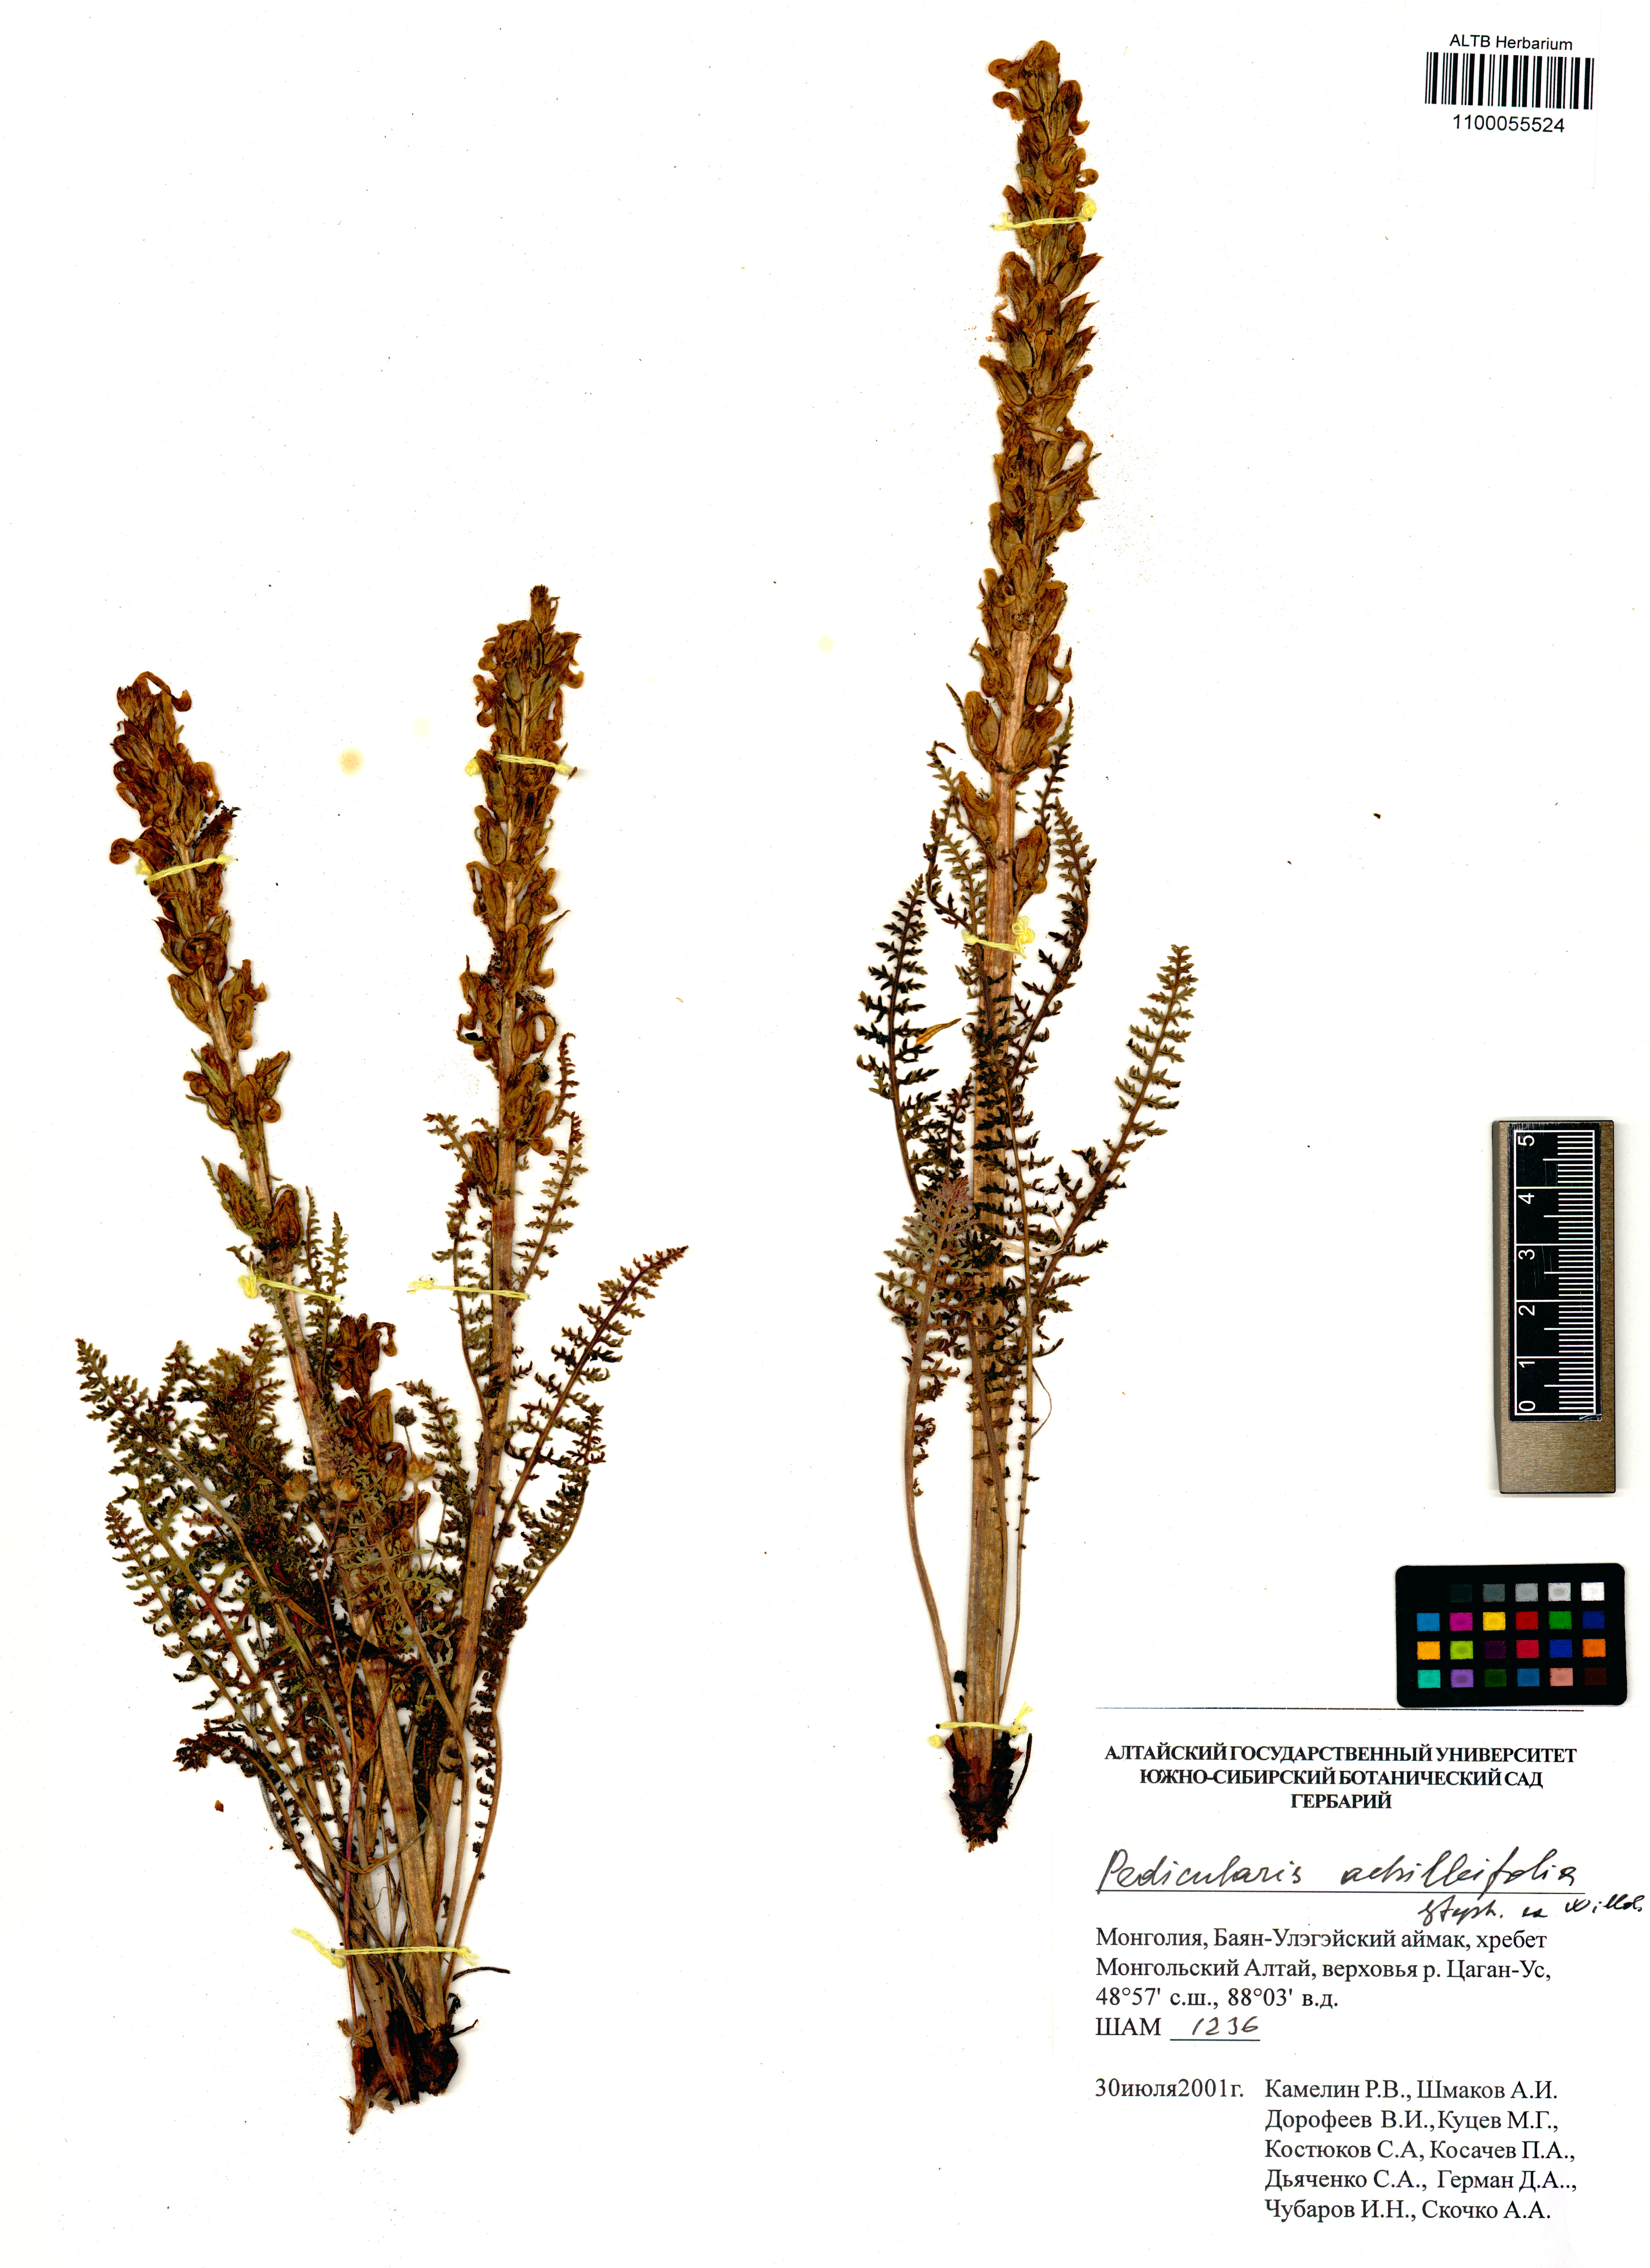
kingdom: Plantae
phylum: Tracheophyta
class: Magnoliopsida
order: Lamiales
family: Orobanchaceae
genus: Pedicularis
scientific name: Pedicularis achilleifolia
